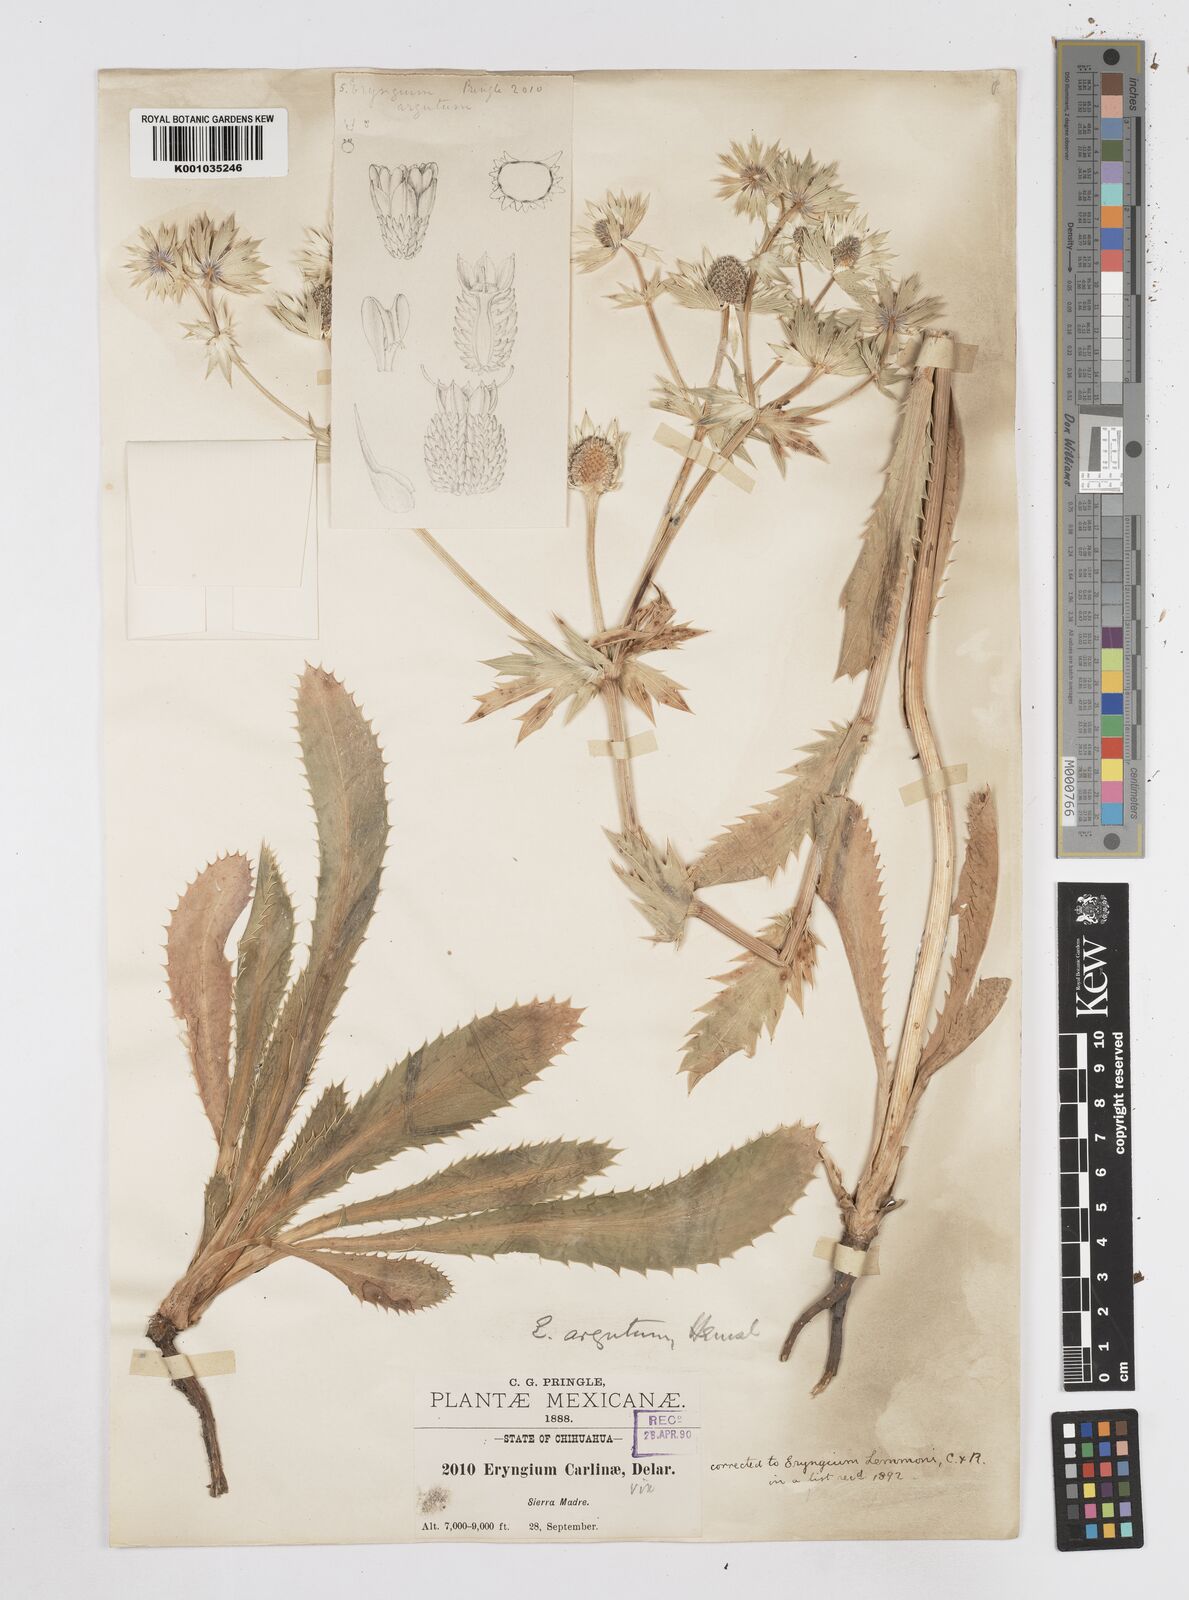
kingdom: Plantae
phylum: Tracheophyta
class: Magnoliopsida
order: Apiales
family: Apiaceae
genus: Eryngium
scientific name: Eryngium lemmonii
